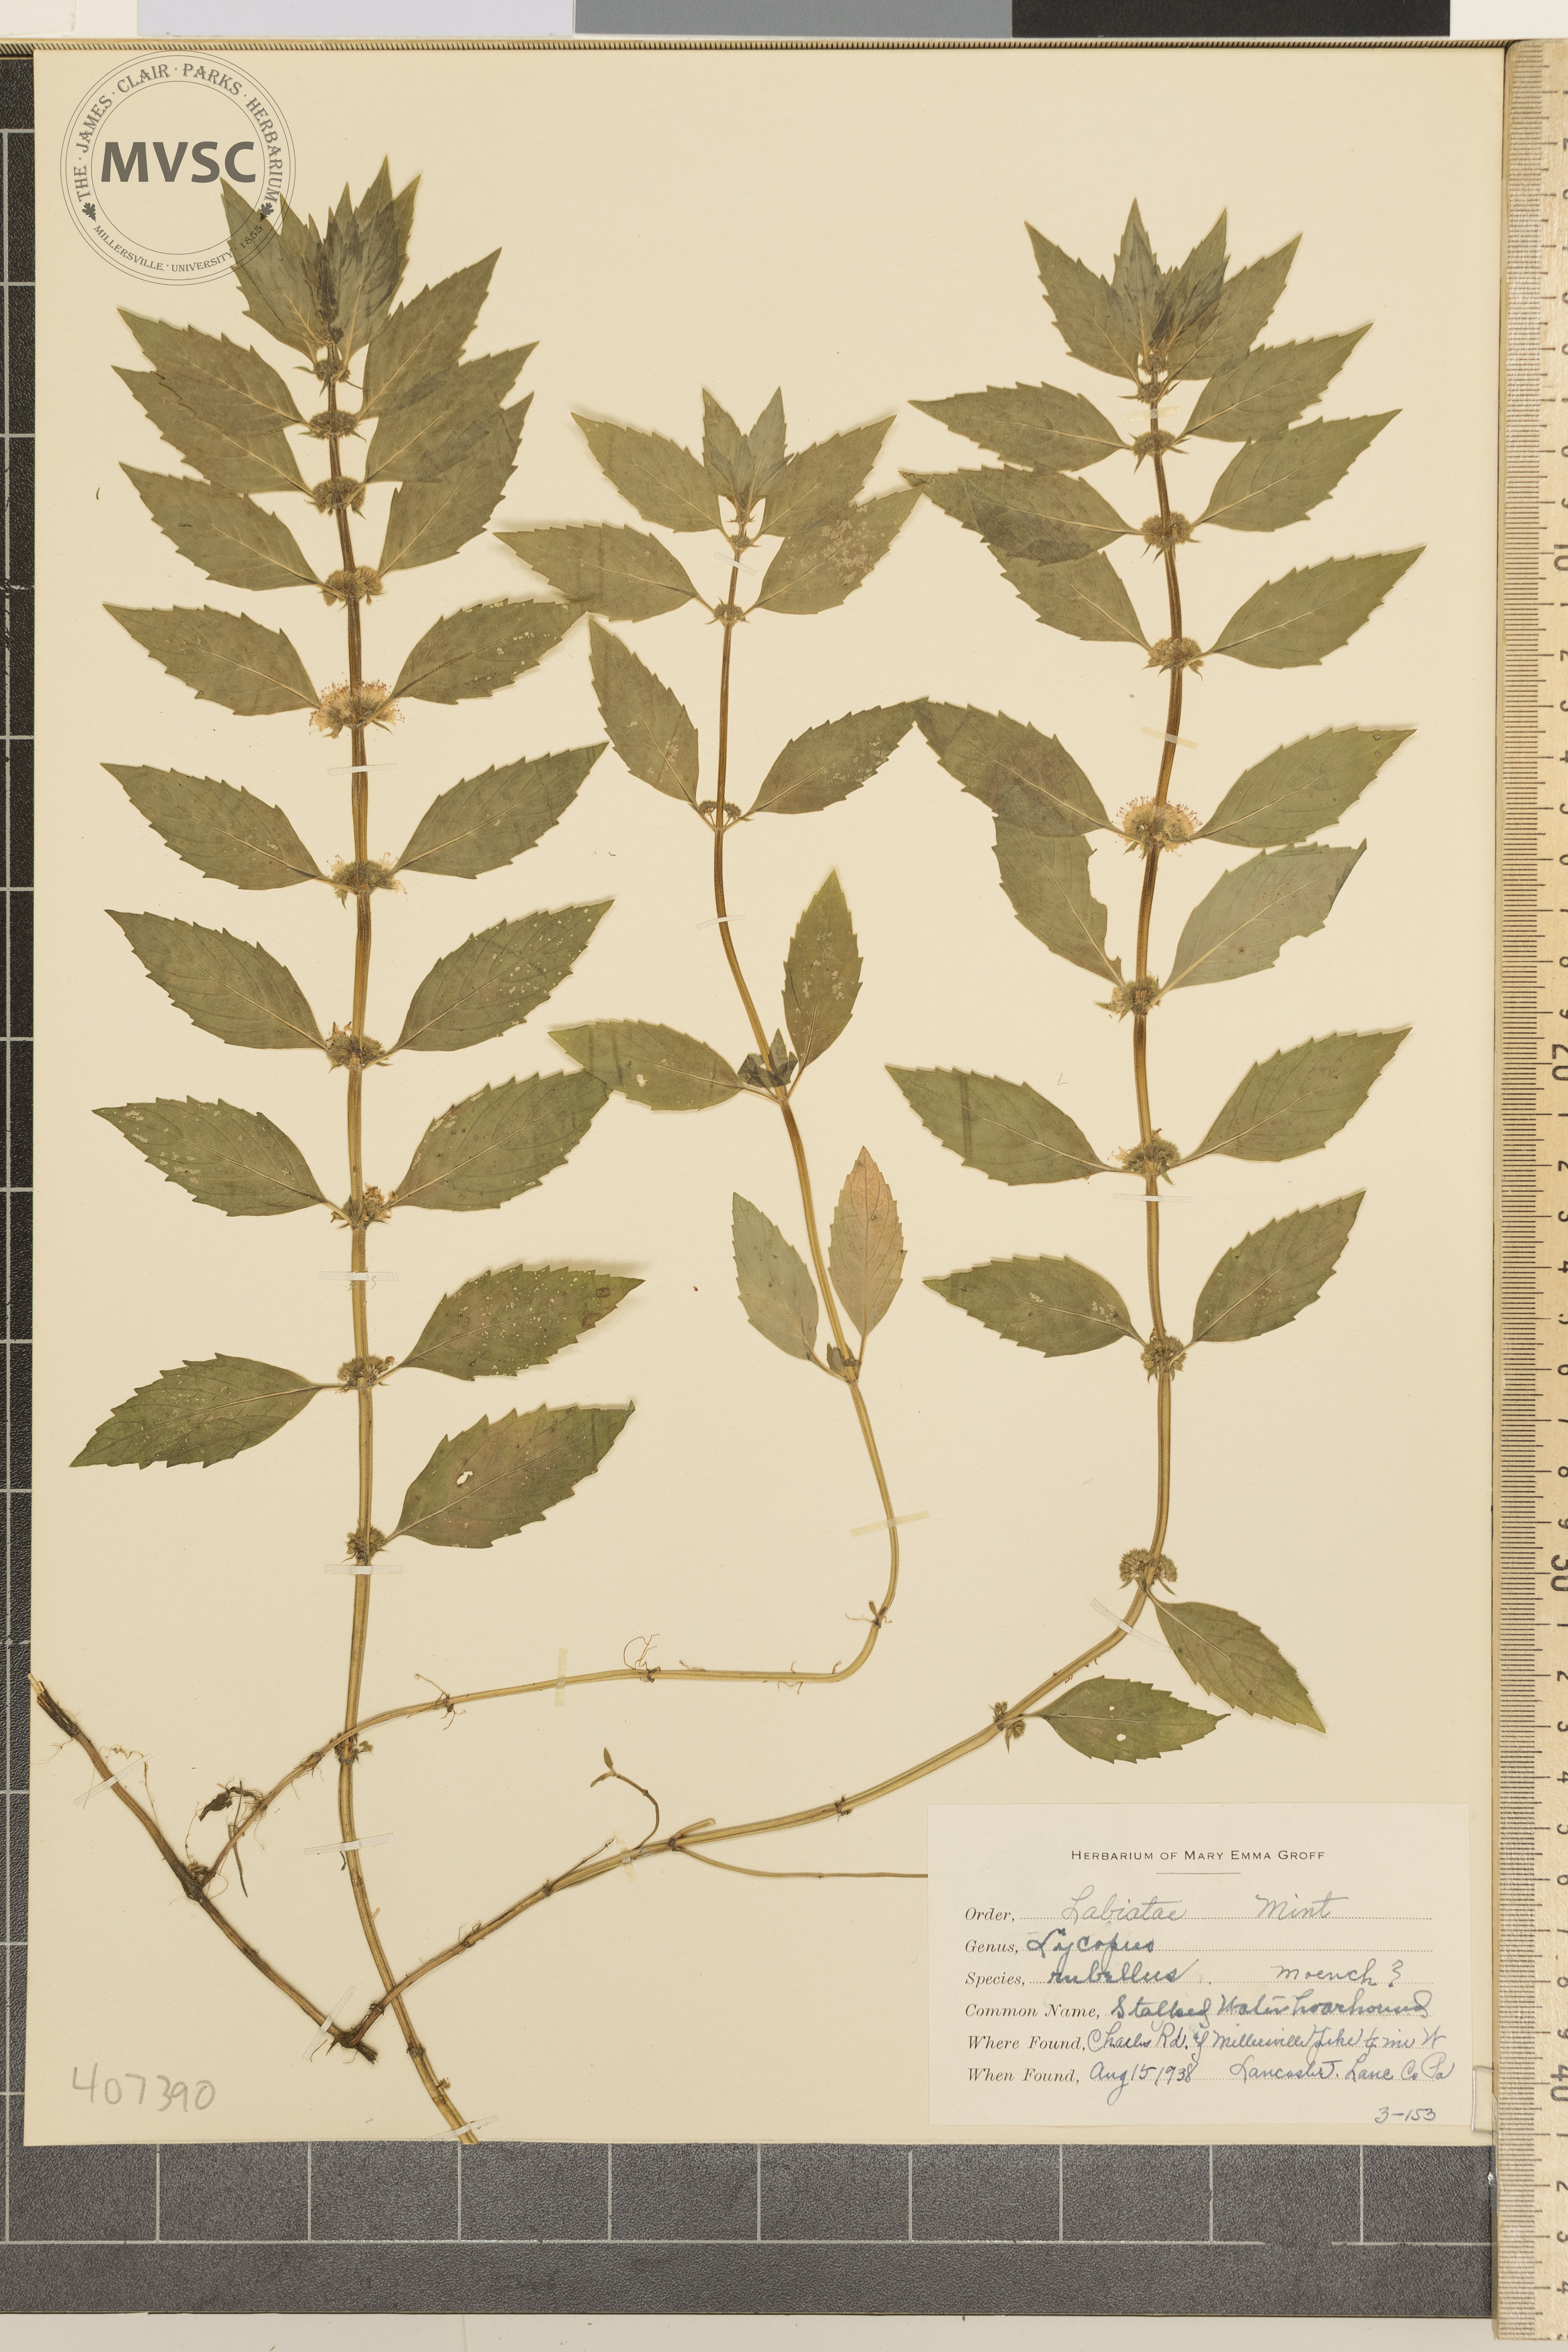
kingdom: Plantae
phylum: Tracheophyta
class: Magnoliopsida
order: Lamiales
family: Lamiaceae
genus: Lycopus
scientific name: Lycopus rubellus
